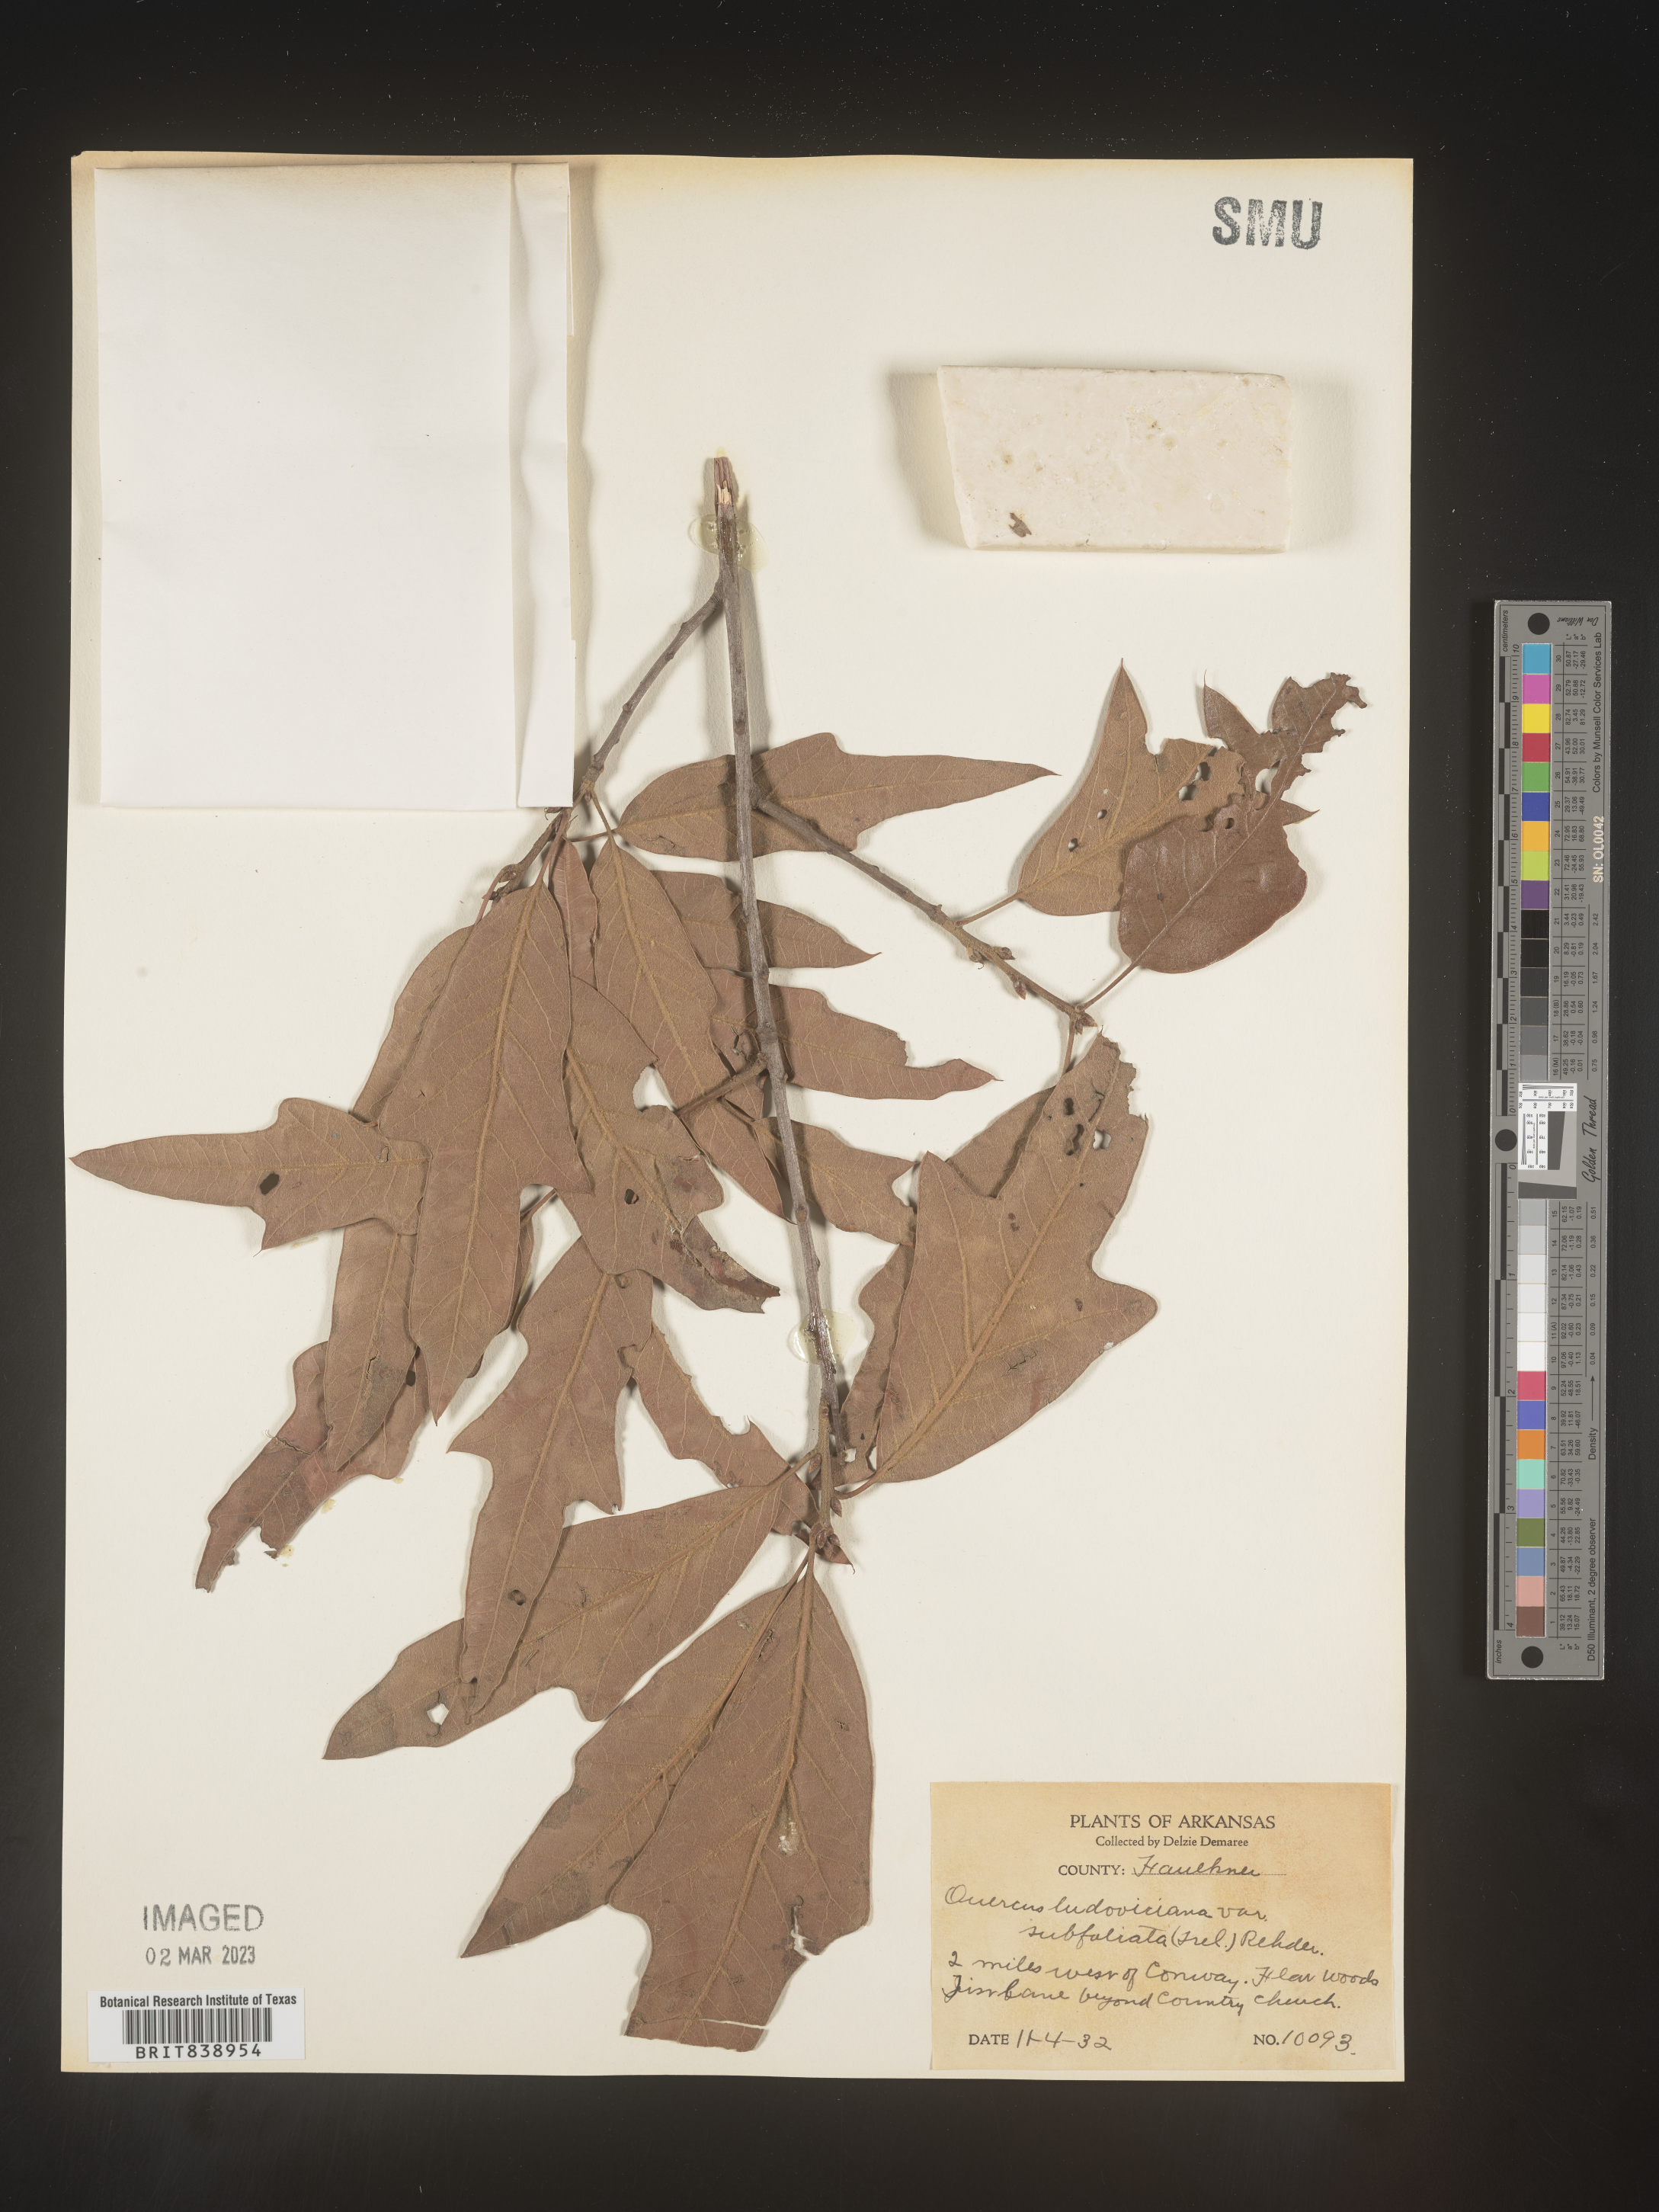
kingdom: Plantae
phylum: Tracheophyta
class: Magnoliopsida
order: Fagales
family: Fagaceae
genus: Quercus
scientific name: Quercus ludoviciana
